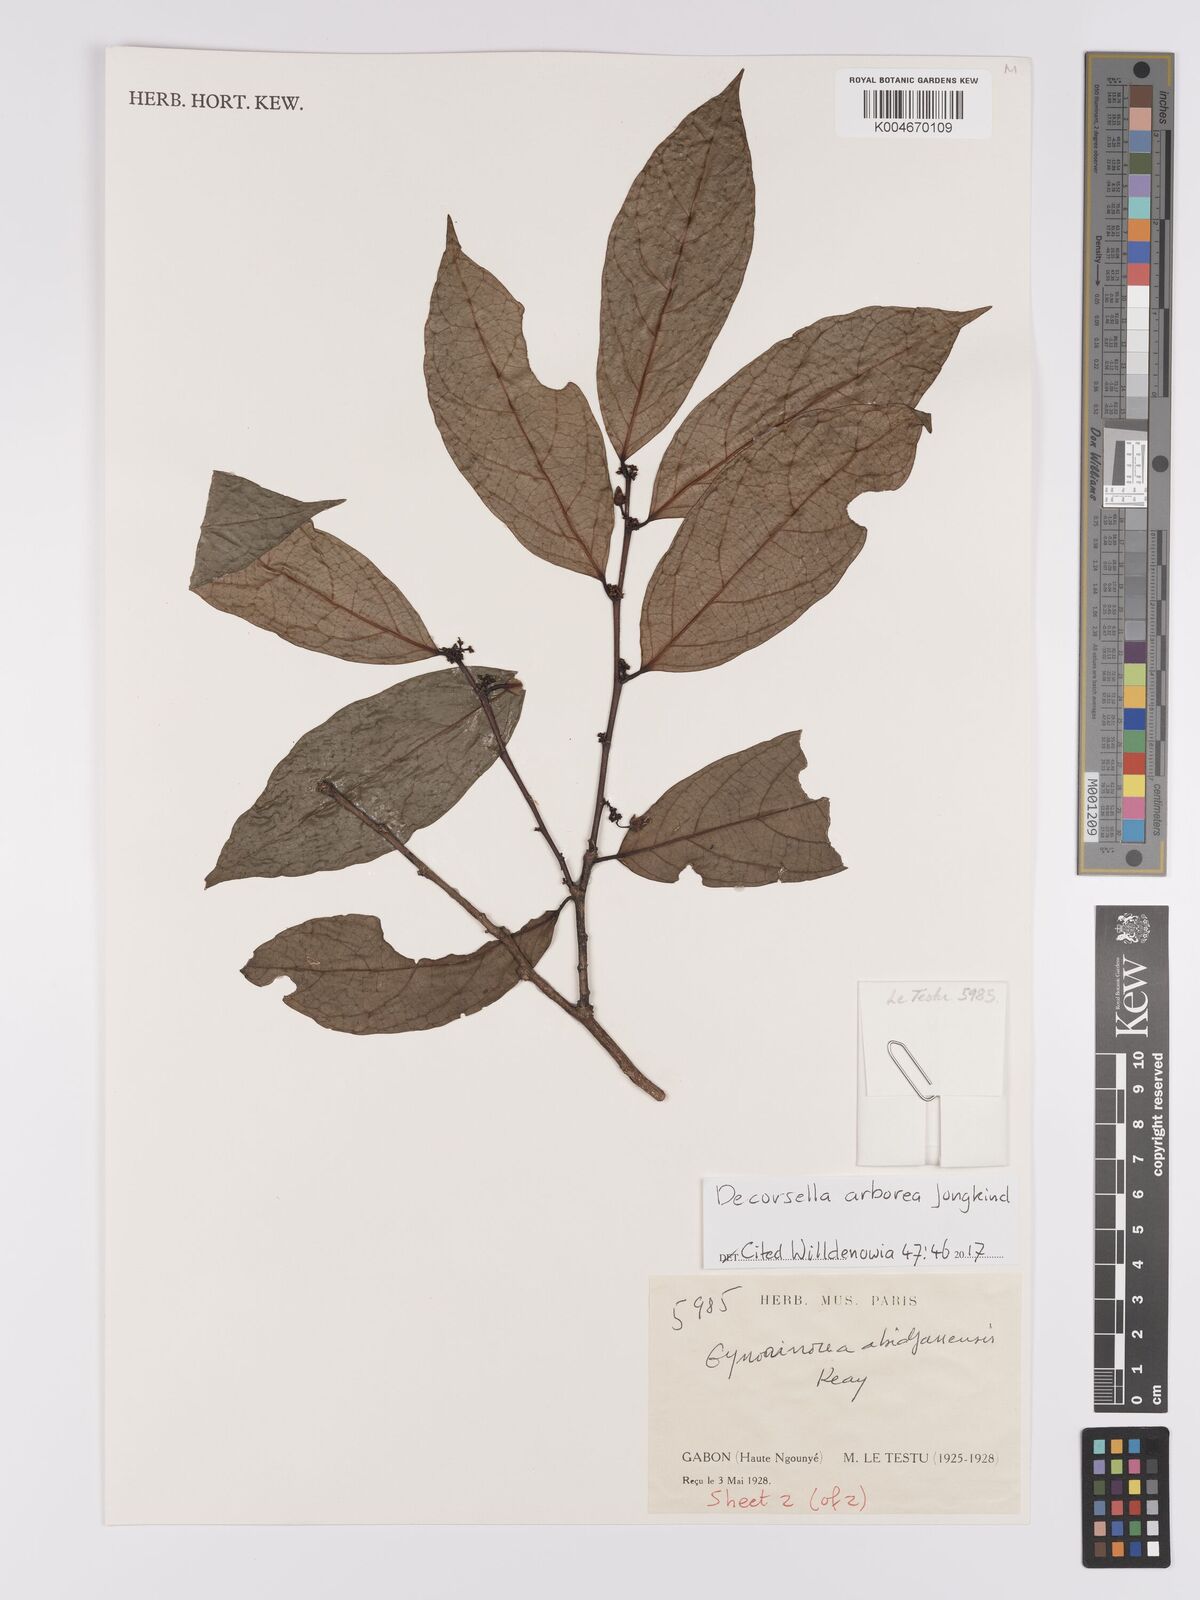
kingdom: Plantae
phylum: Tracheophyta
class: Magnoliopsida
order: Malpighiales
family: Violaceae
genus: Decorsella
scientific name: Decorsella arborea
